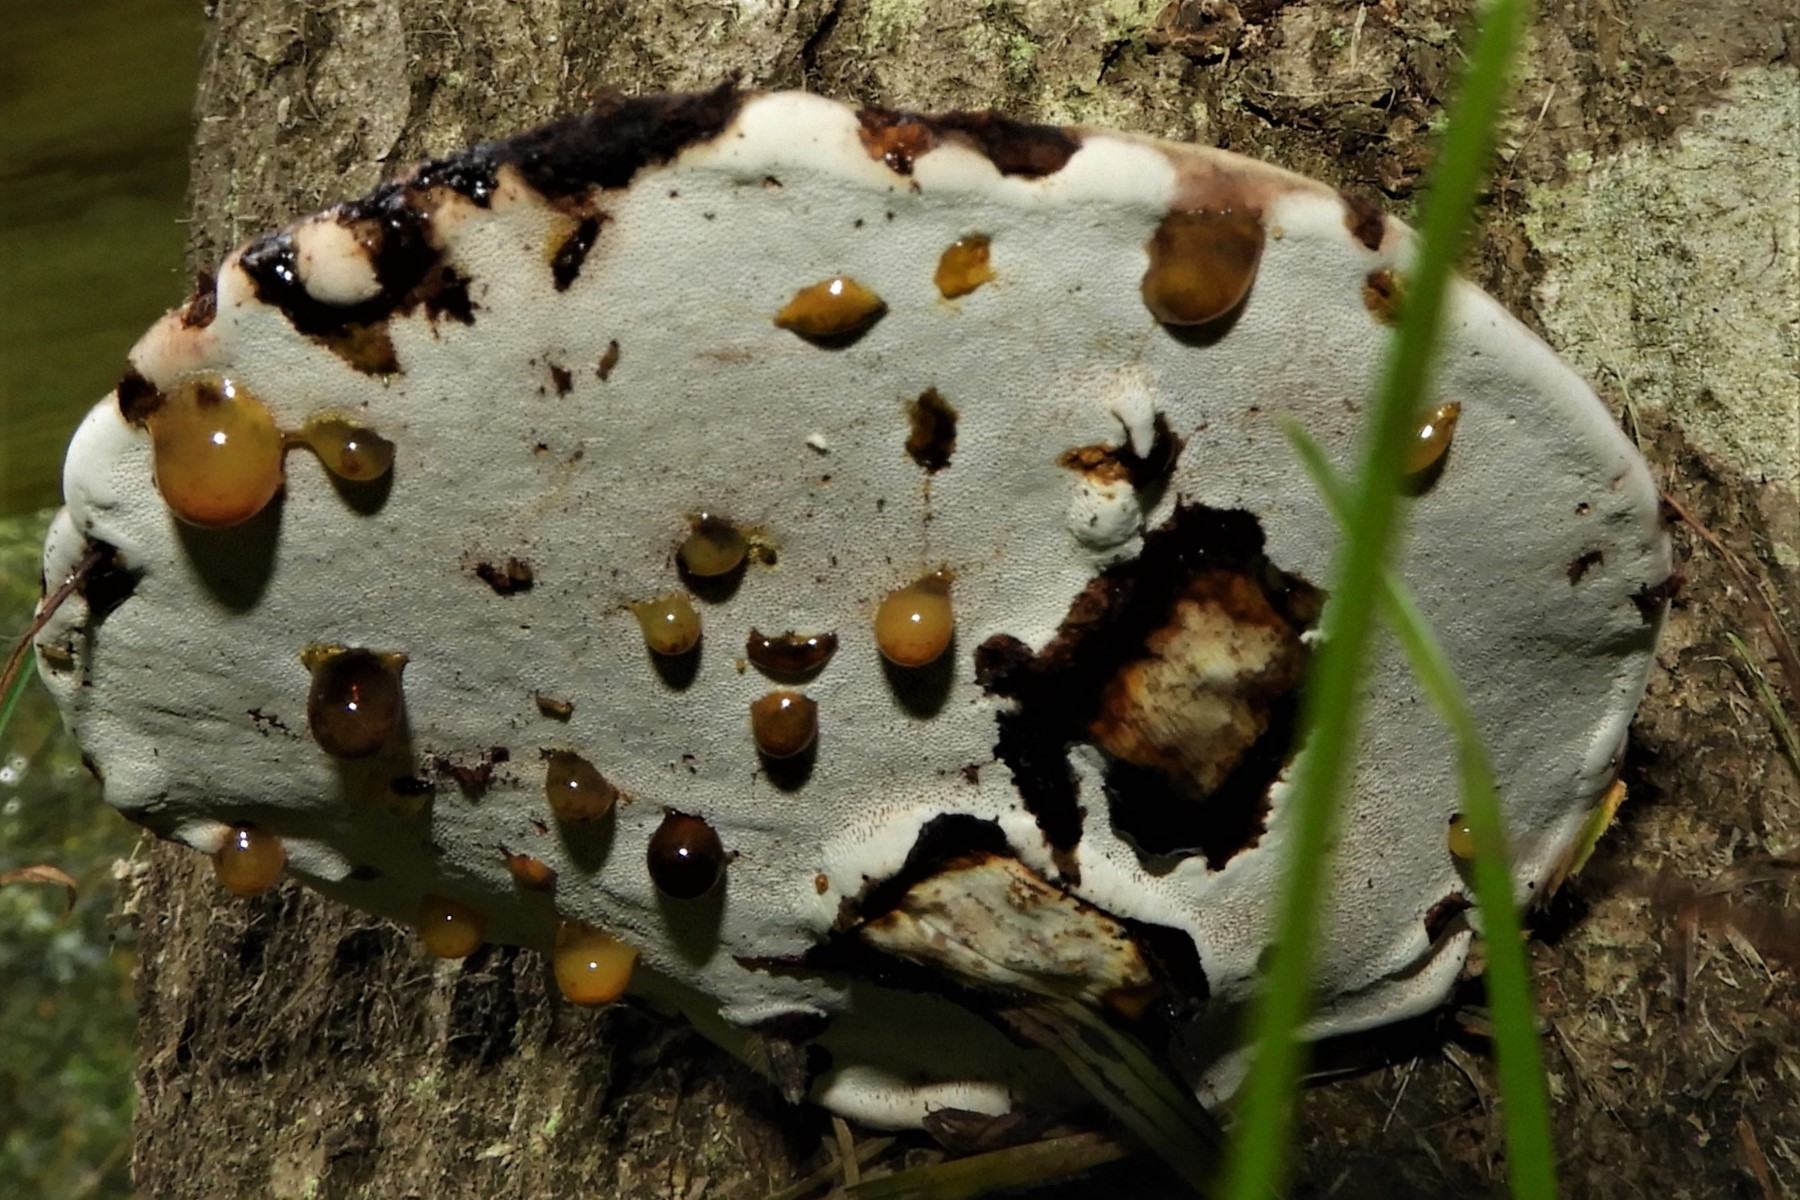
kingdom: Fungi
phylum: Basidiomycota
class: Agaricomycetes
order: Polyporales
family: Polyporaceae
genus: Ganoderma
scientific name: Ganoderma applanatum
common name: flad lakporesvamp
